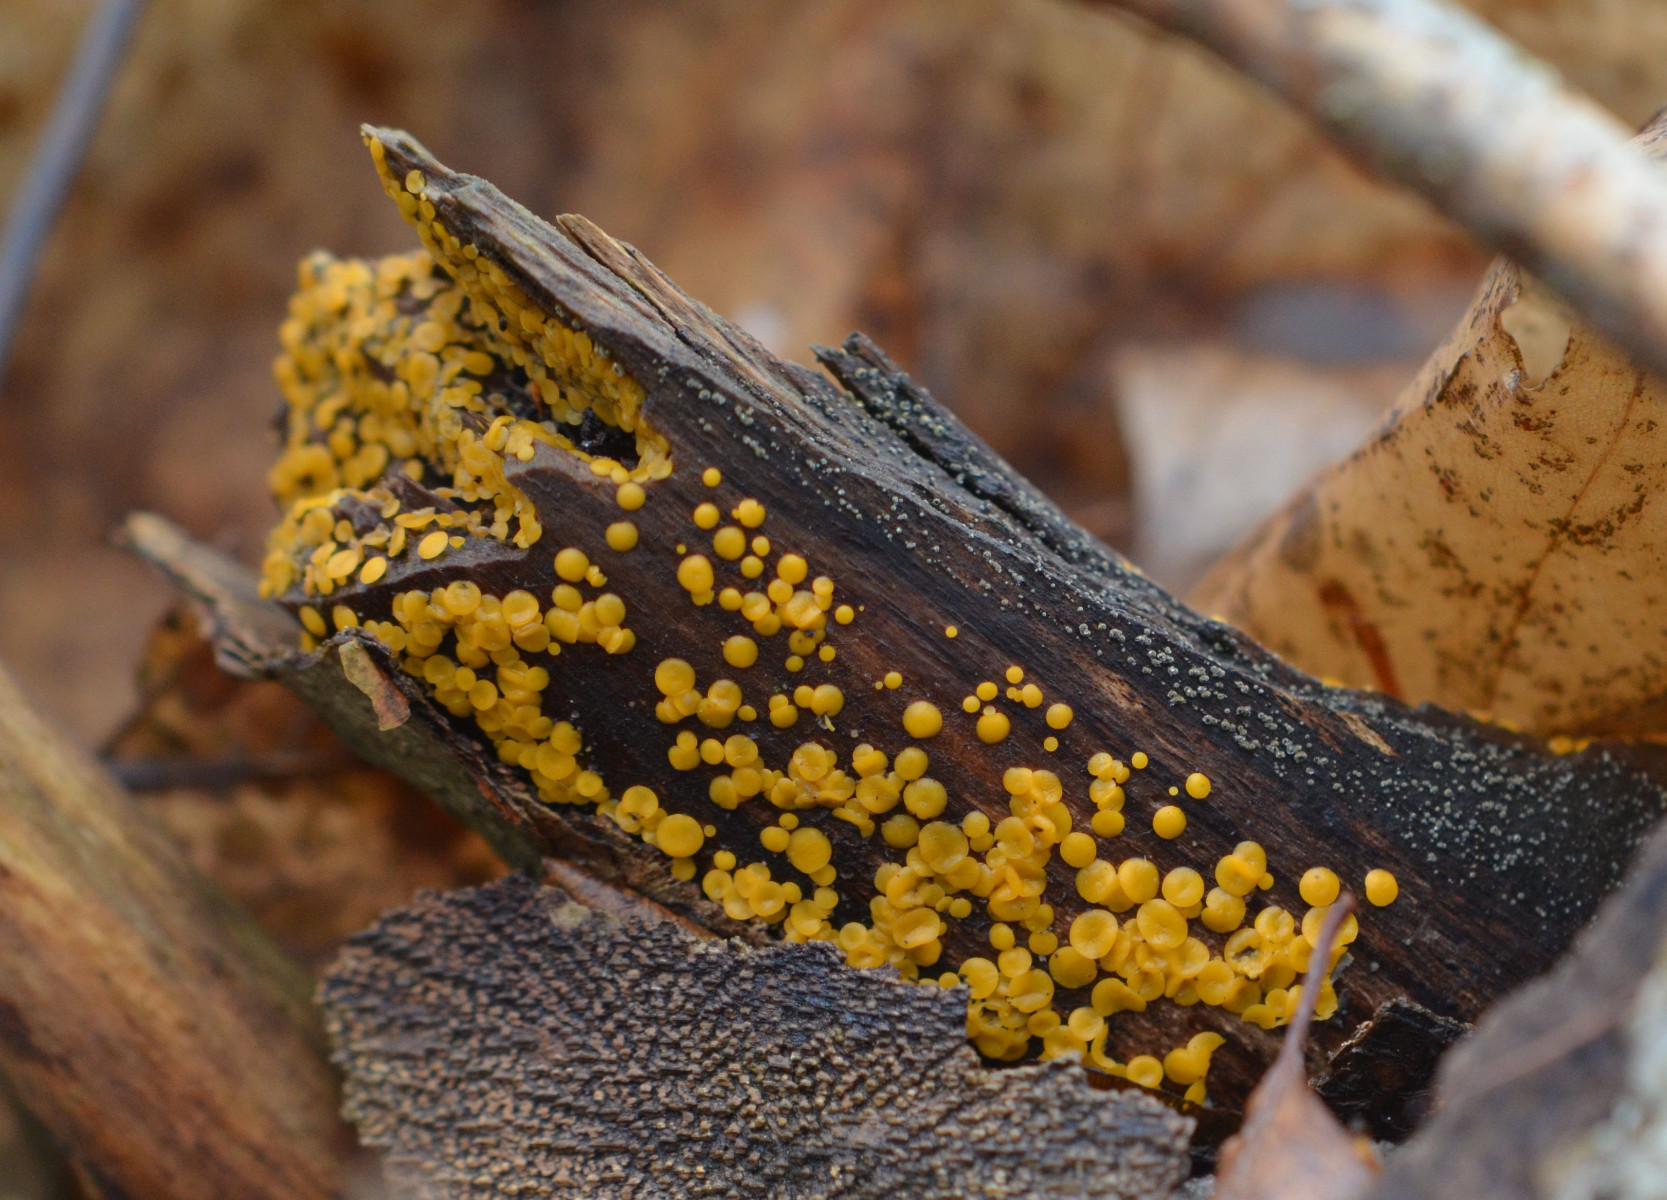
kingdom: Fungi
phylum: Ascomycota
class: Leotiomycetes
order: Helotiales
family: Pezizellaceae
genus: Calycina
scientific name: Calycina citrina
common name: almindelig gulskive
